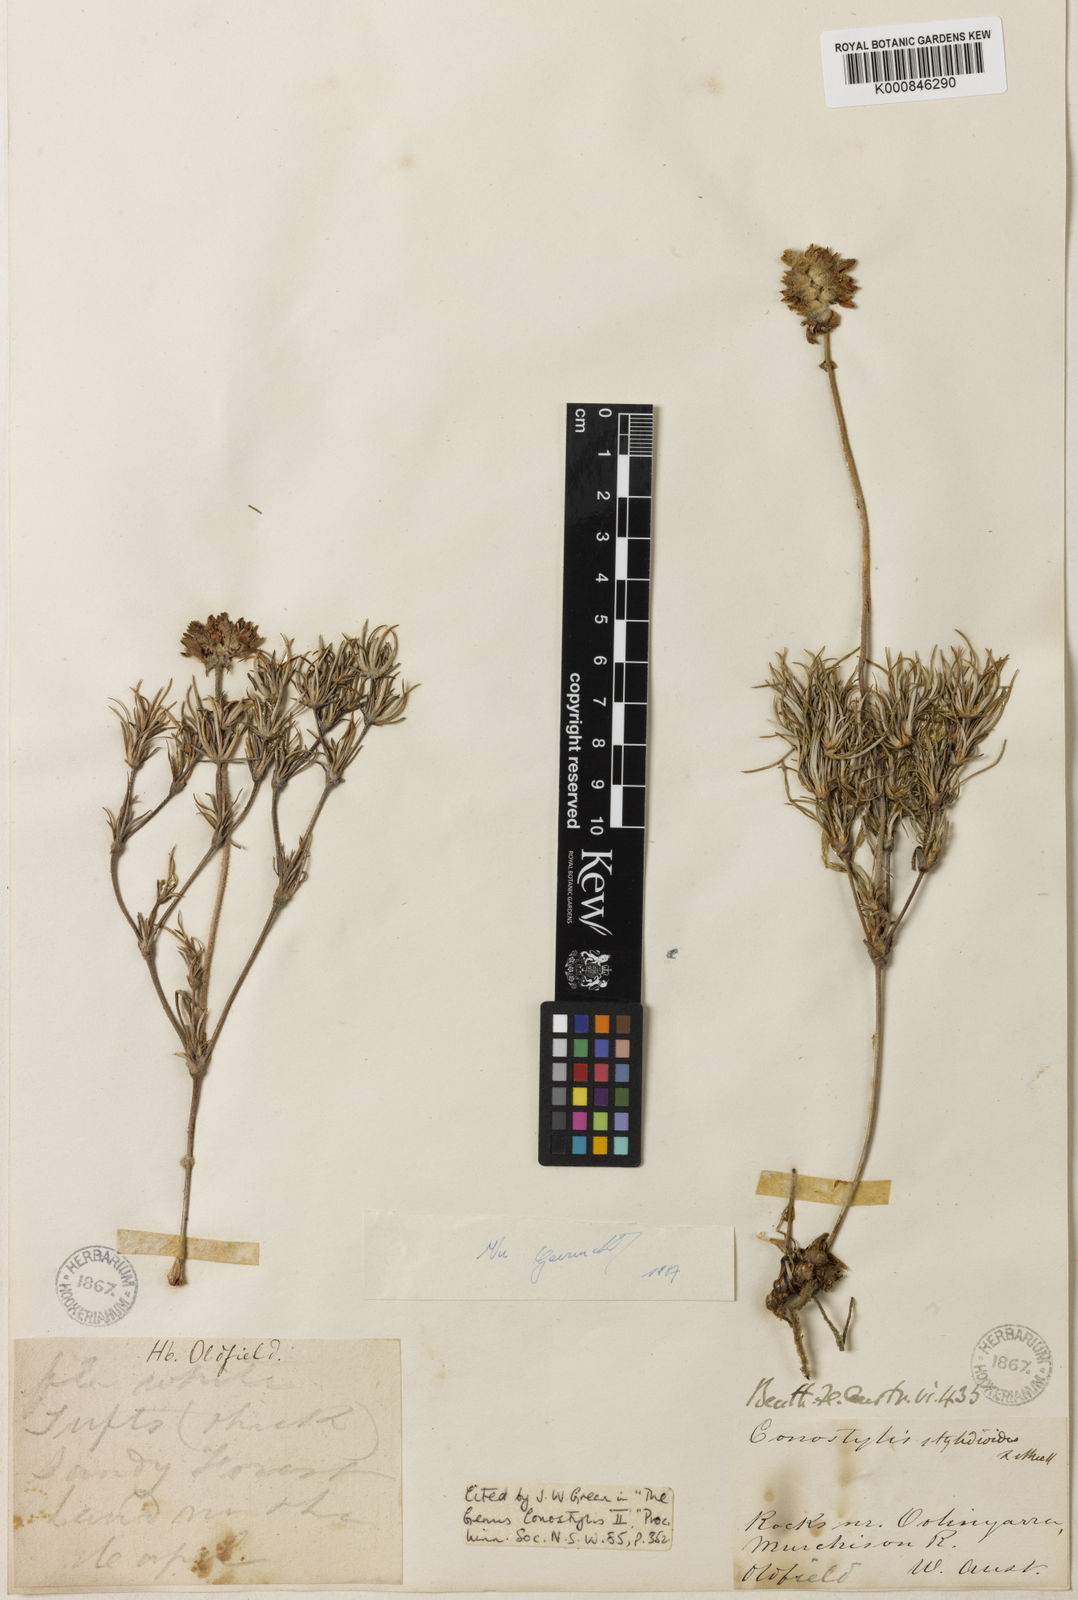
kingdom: Plantae
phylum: Tracheophyta
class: Liliopsida
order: Commelinales
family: Haemodoraceae
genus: Conostylis
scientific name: Conostylis stylidioides
